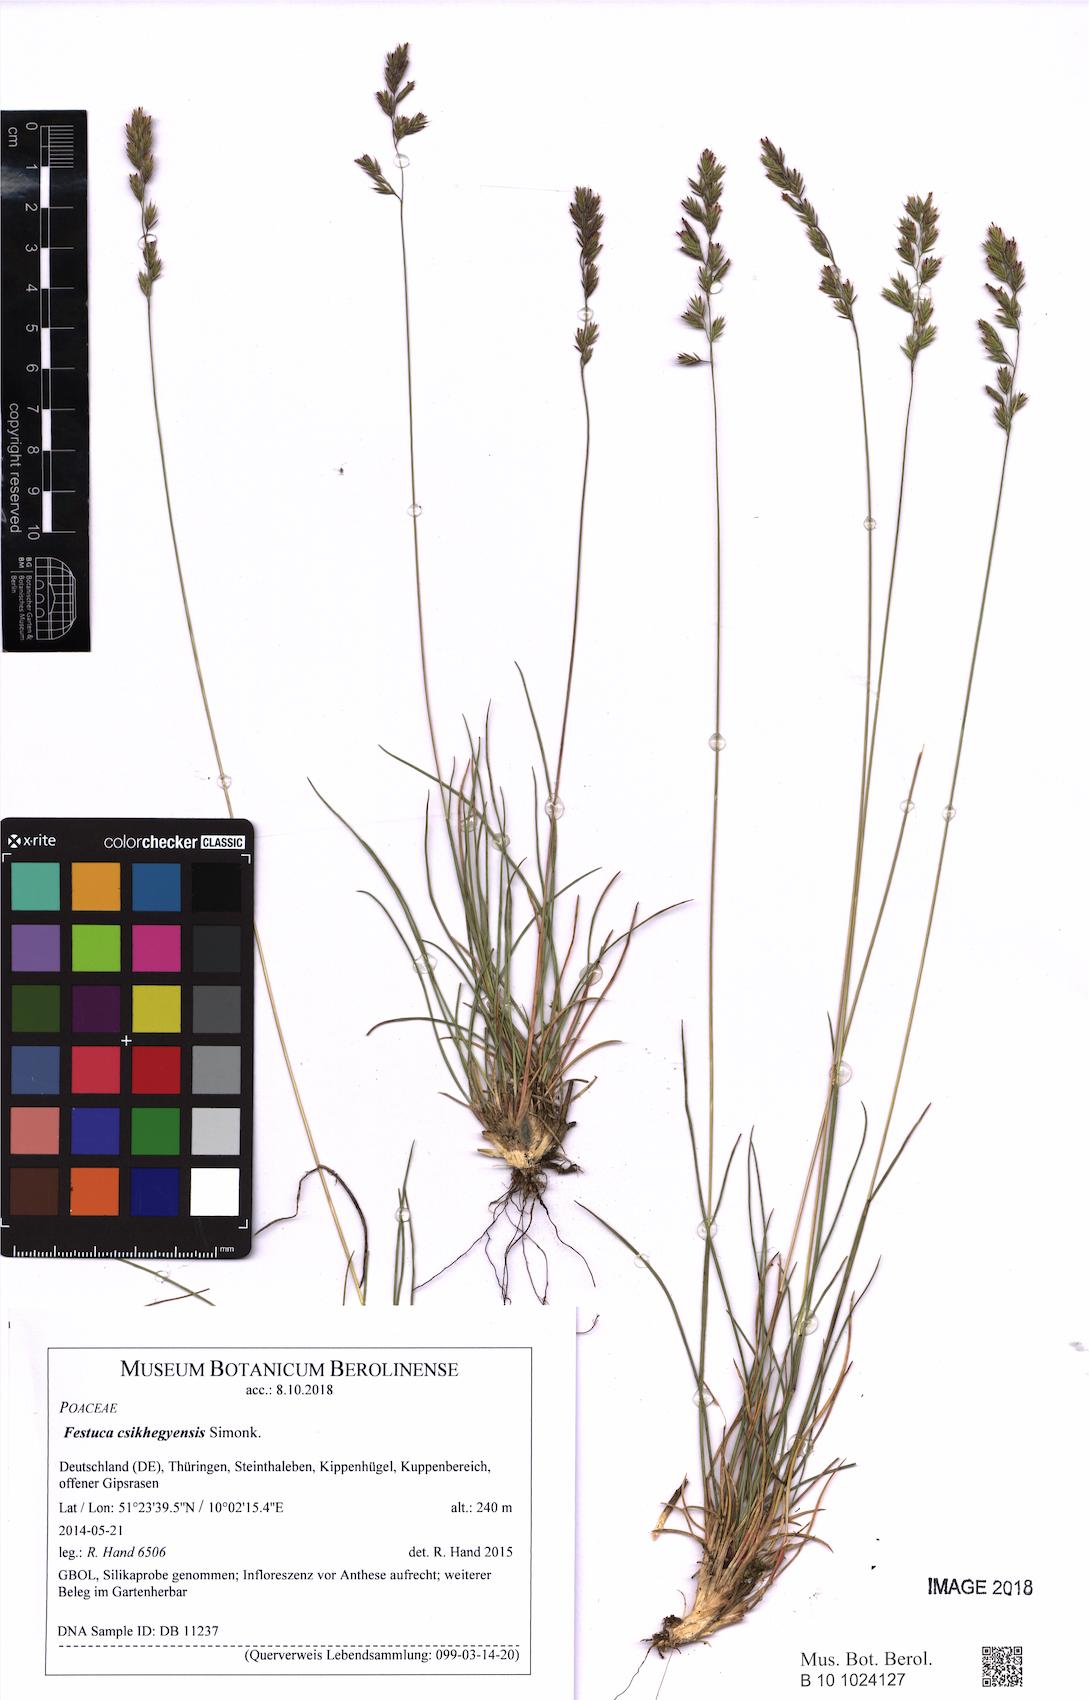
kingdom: Plantae
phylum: Tracheophyta
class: Liliopsida
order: Poales
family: Poaceae
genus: Festuca
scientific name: Festuca csikhegyensis
